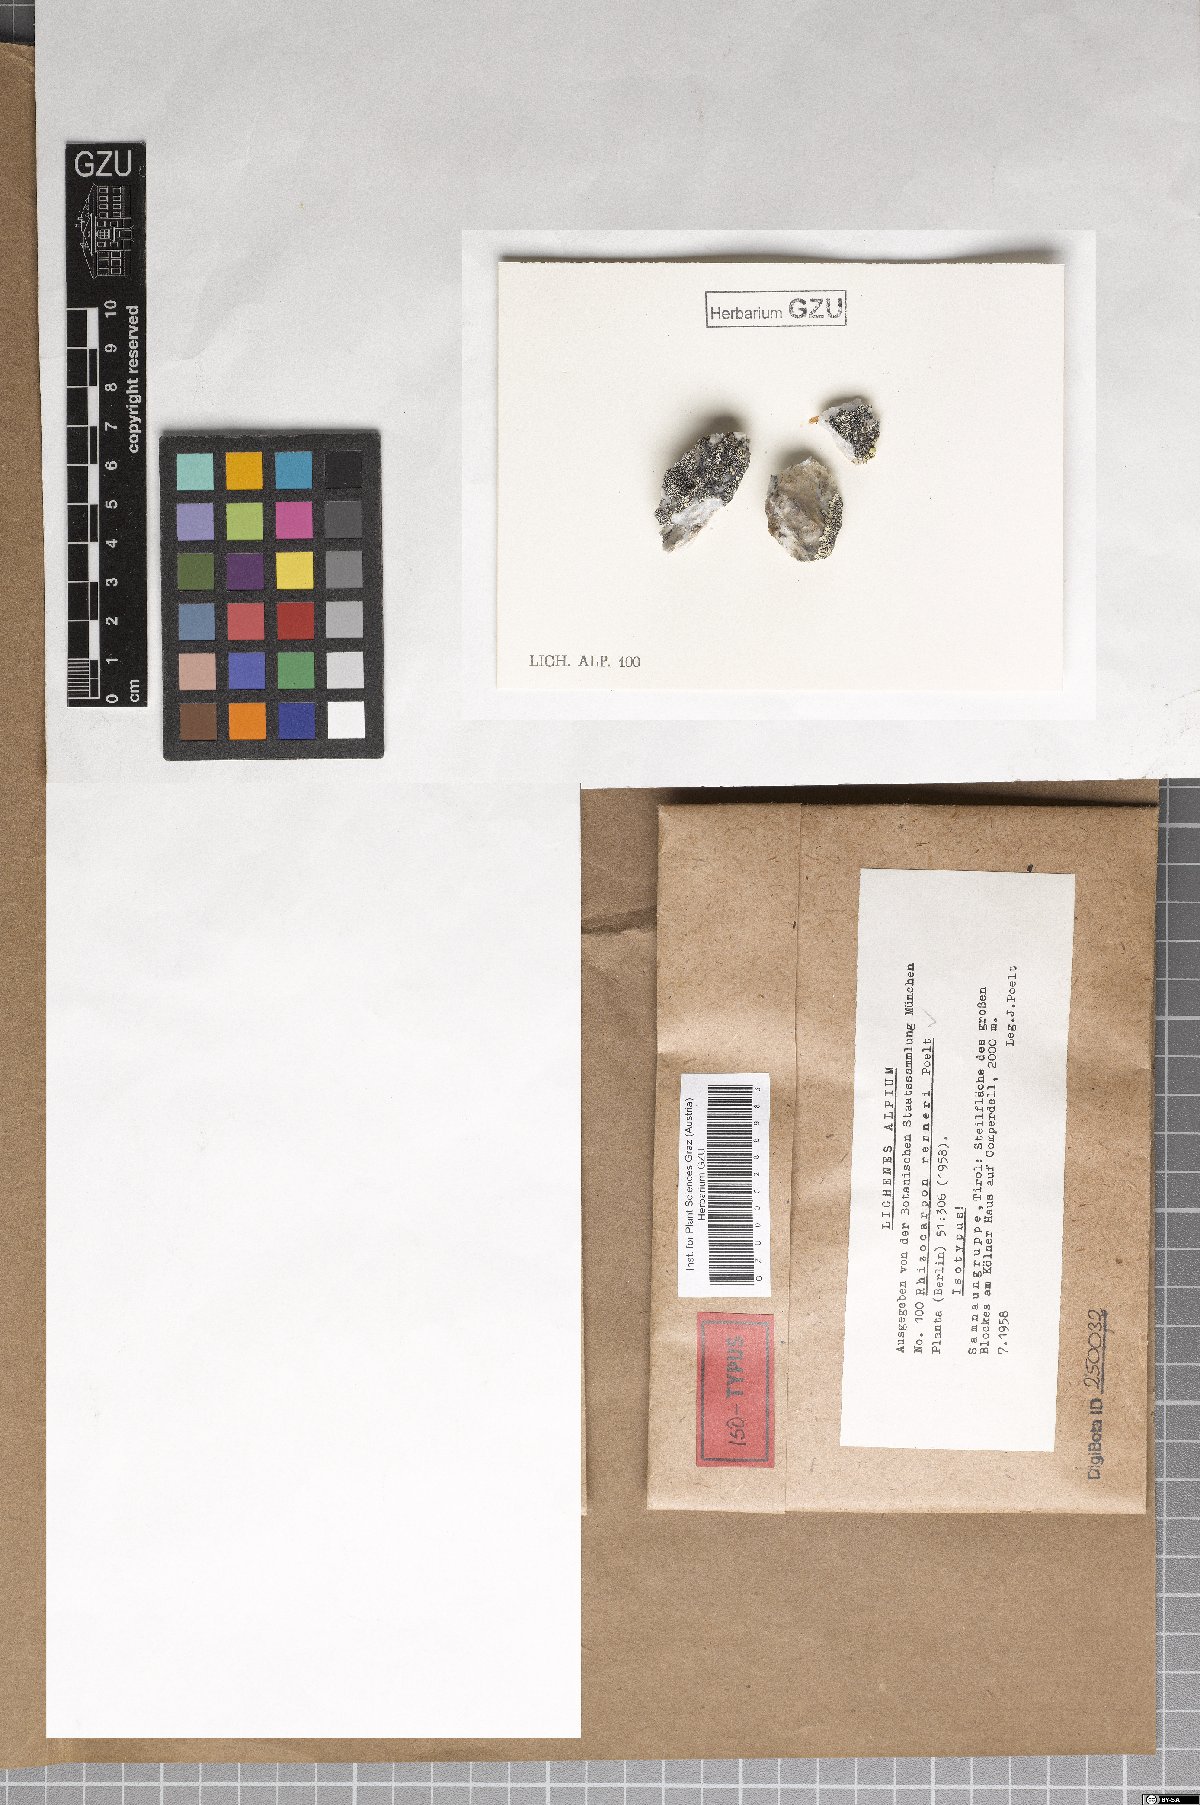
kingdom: Fungi
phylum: Ascomycota
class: Lecanoromycetes
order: Rhizocarpales
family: Rhizocarpaceae
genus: Rhizocarpon
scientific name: Rhizocarpon renneri
